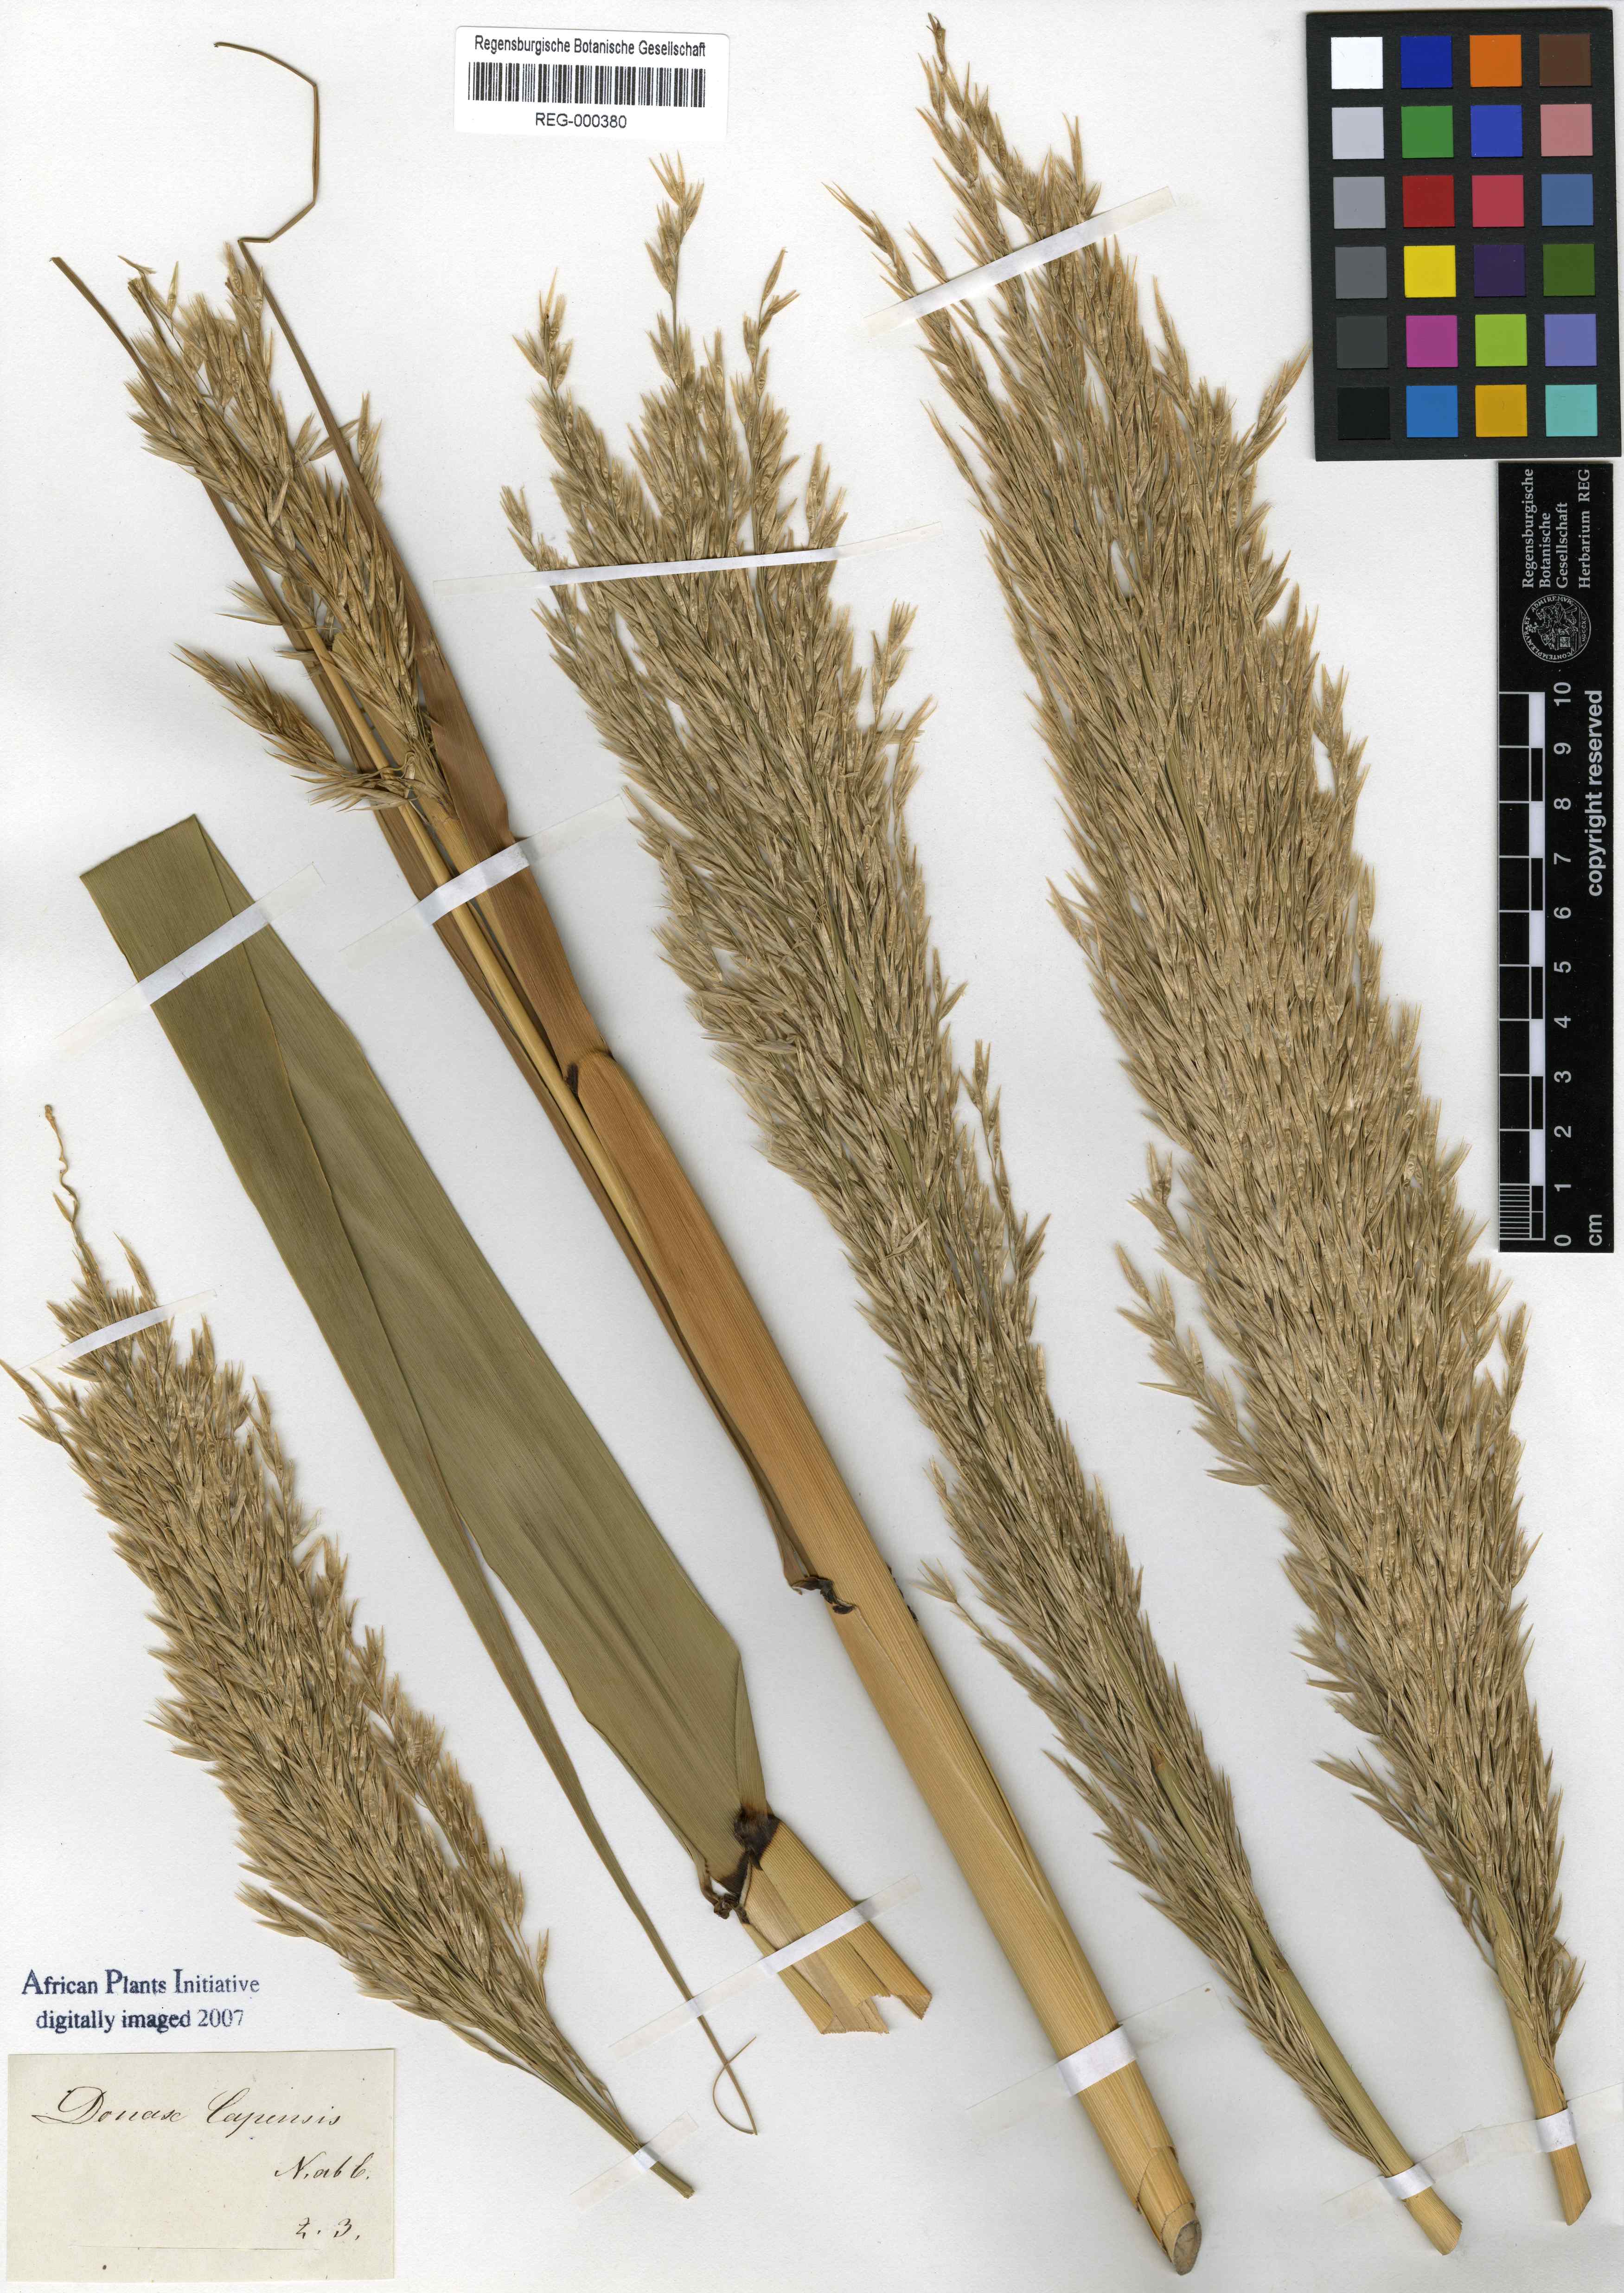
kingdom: Plantae
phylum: Tracheophyta
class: Liliopsida
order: Zingiberales
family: Marantaceae
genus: Donax
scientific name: Donax
